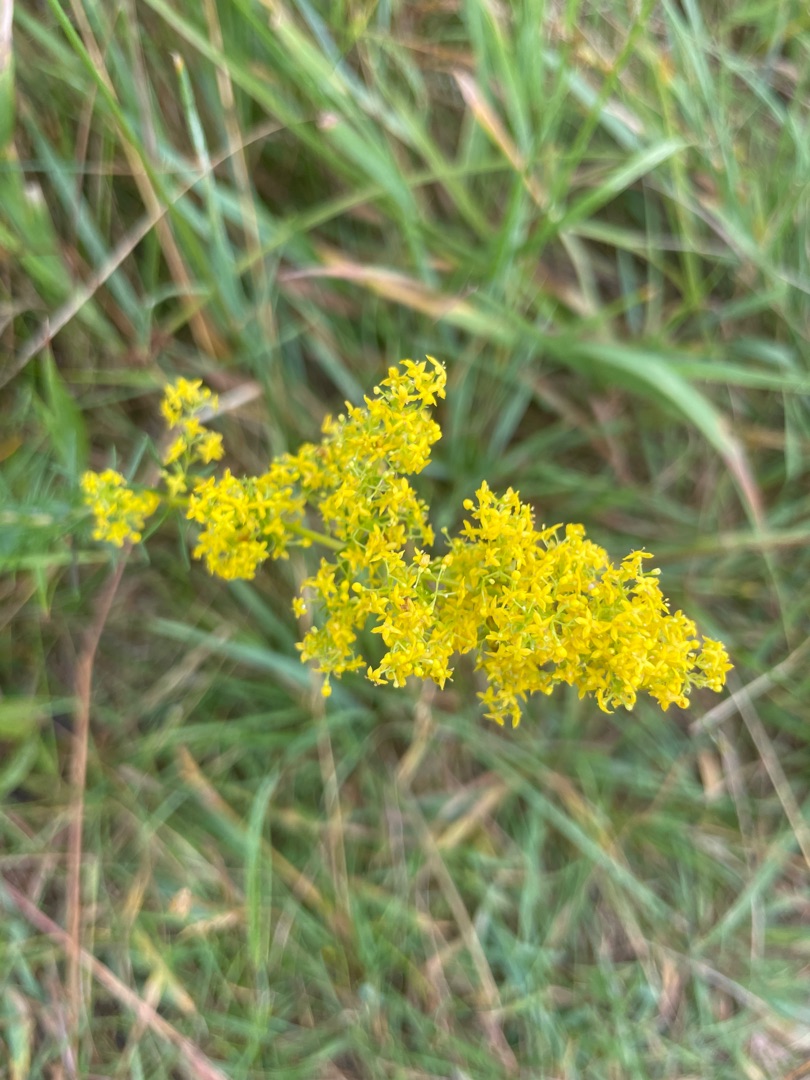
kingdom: Plantae
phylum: Tracheophyta
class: Magnoliopsida
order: Gentianales
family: Rubiaceae
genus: Galium
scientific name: Galium verum
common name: Gul snerre
